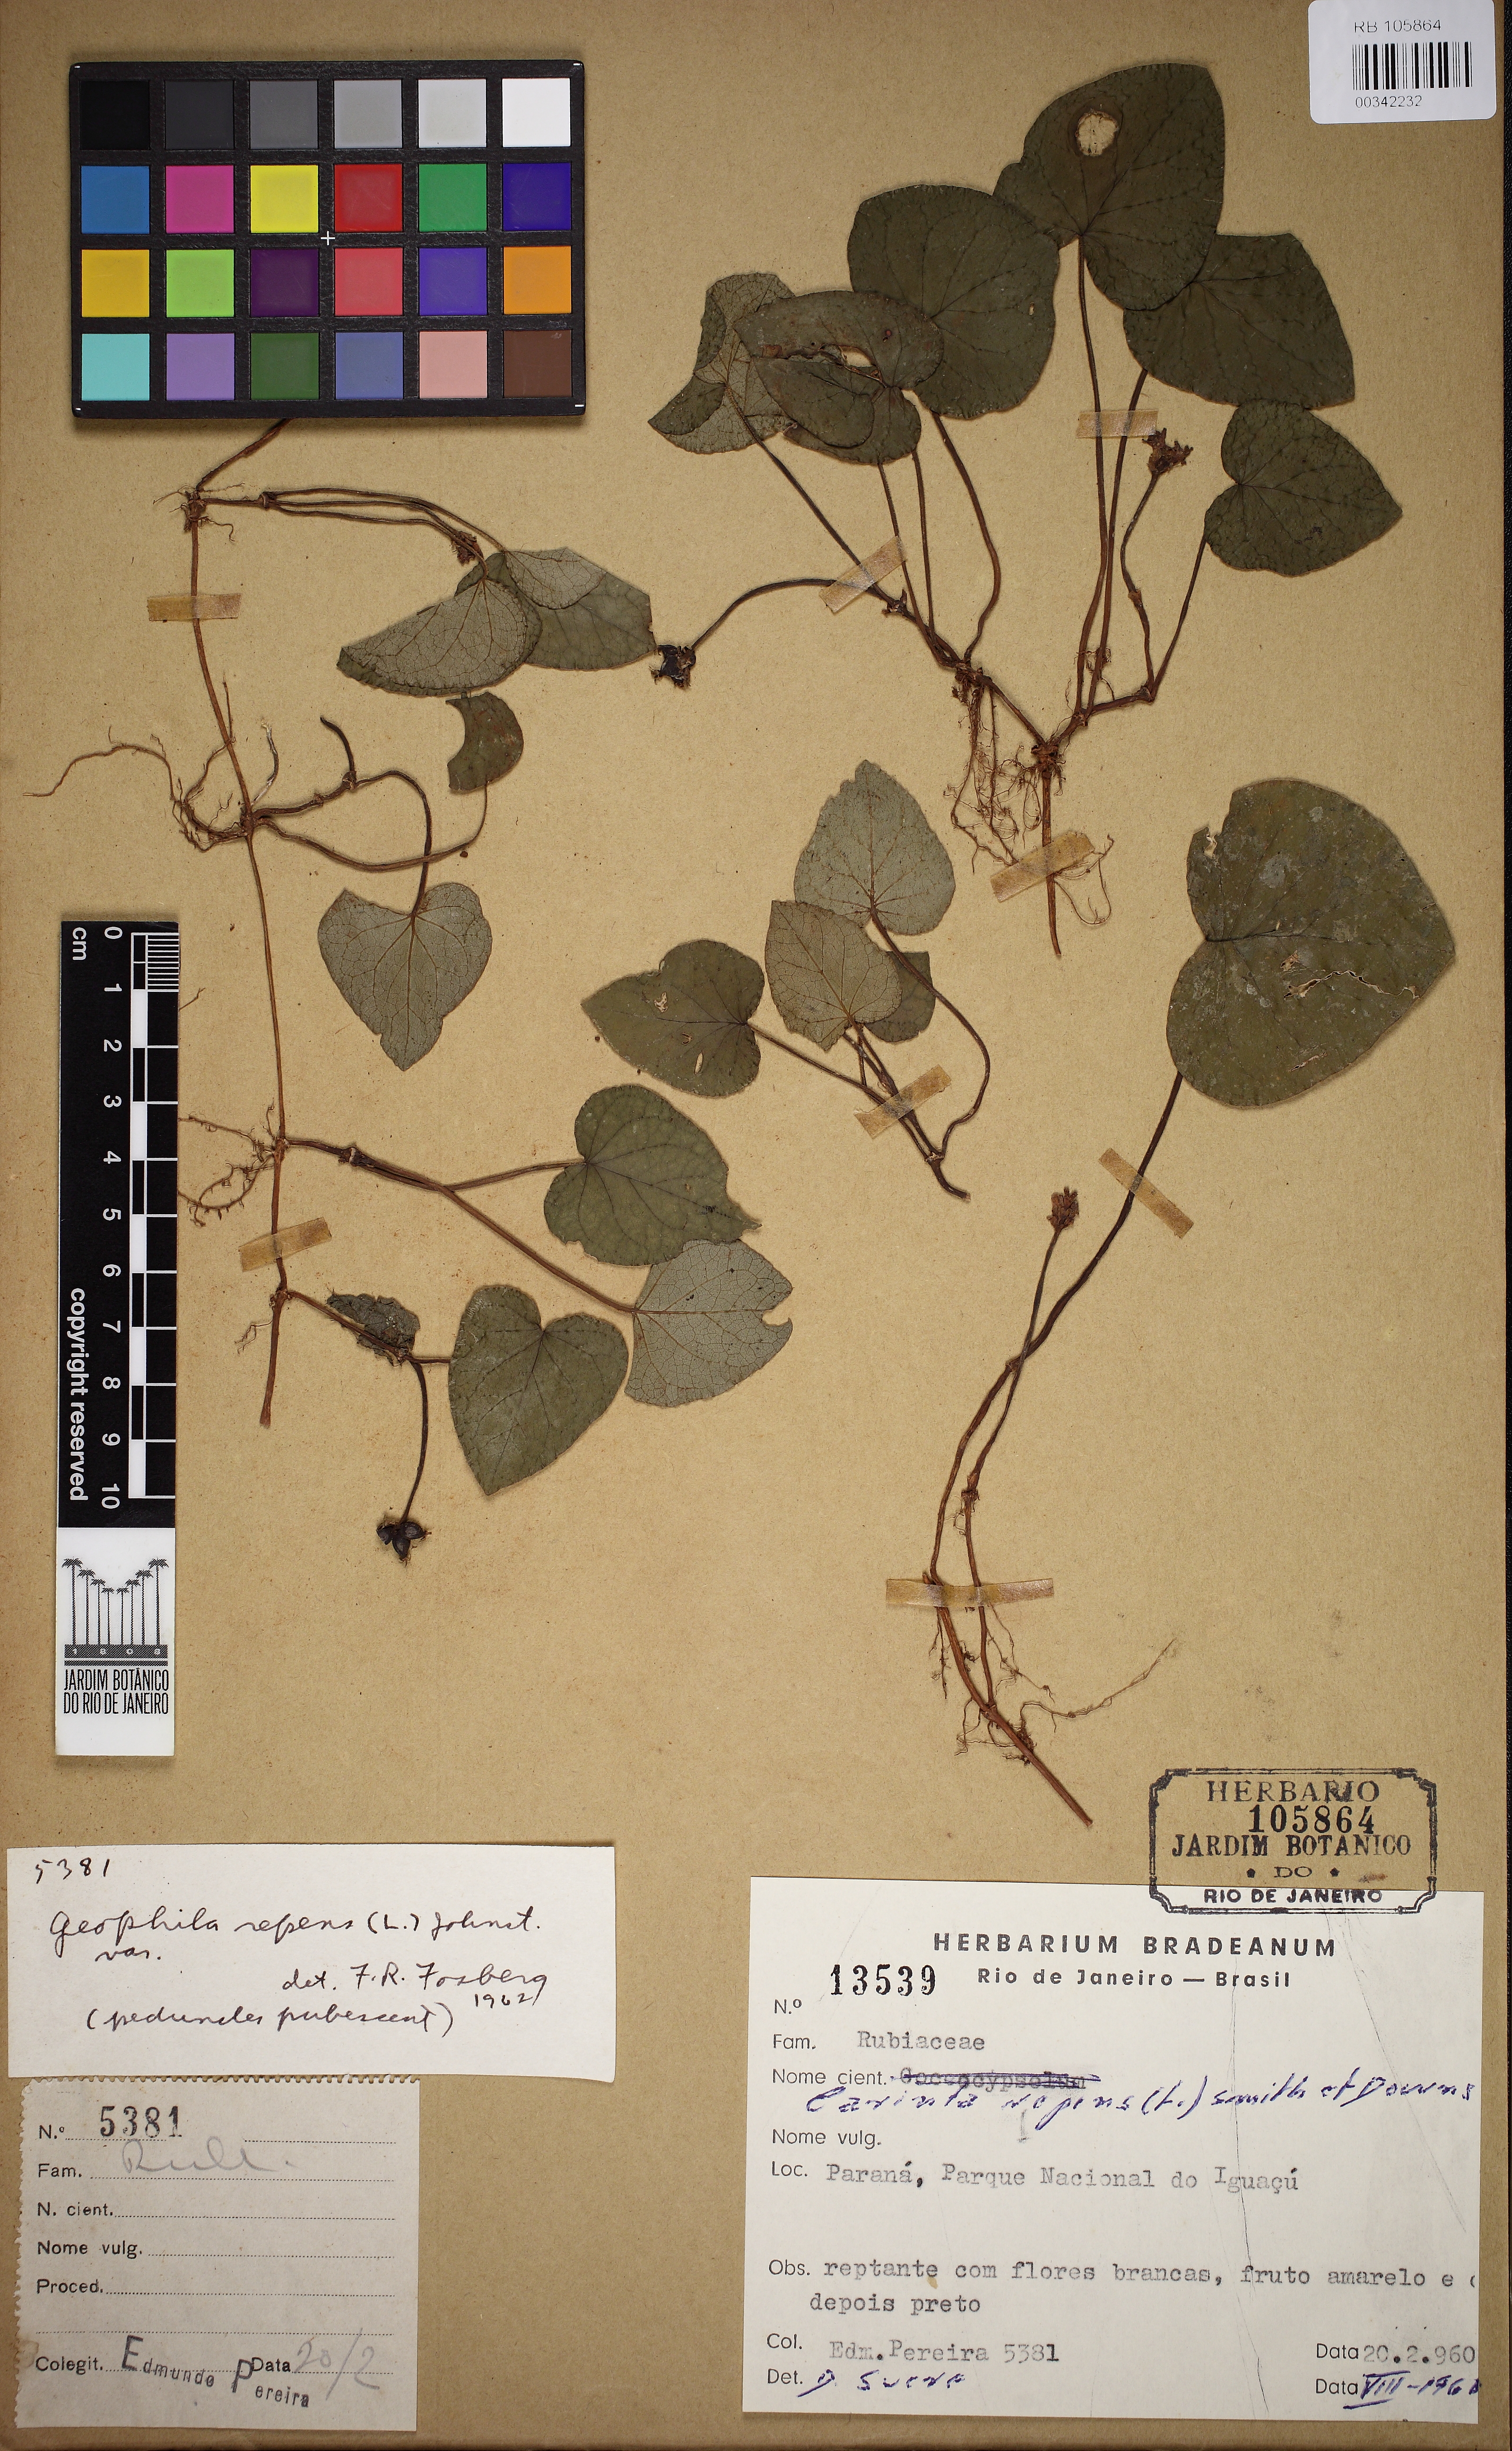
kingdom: Plantae
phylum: Tracheophyta
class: Magnoliopsida
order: Gentianales
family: Rubiaceae
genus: Geophila
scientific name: Geophila repens
